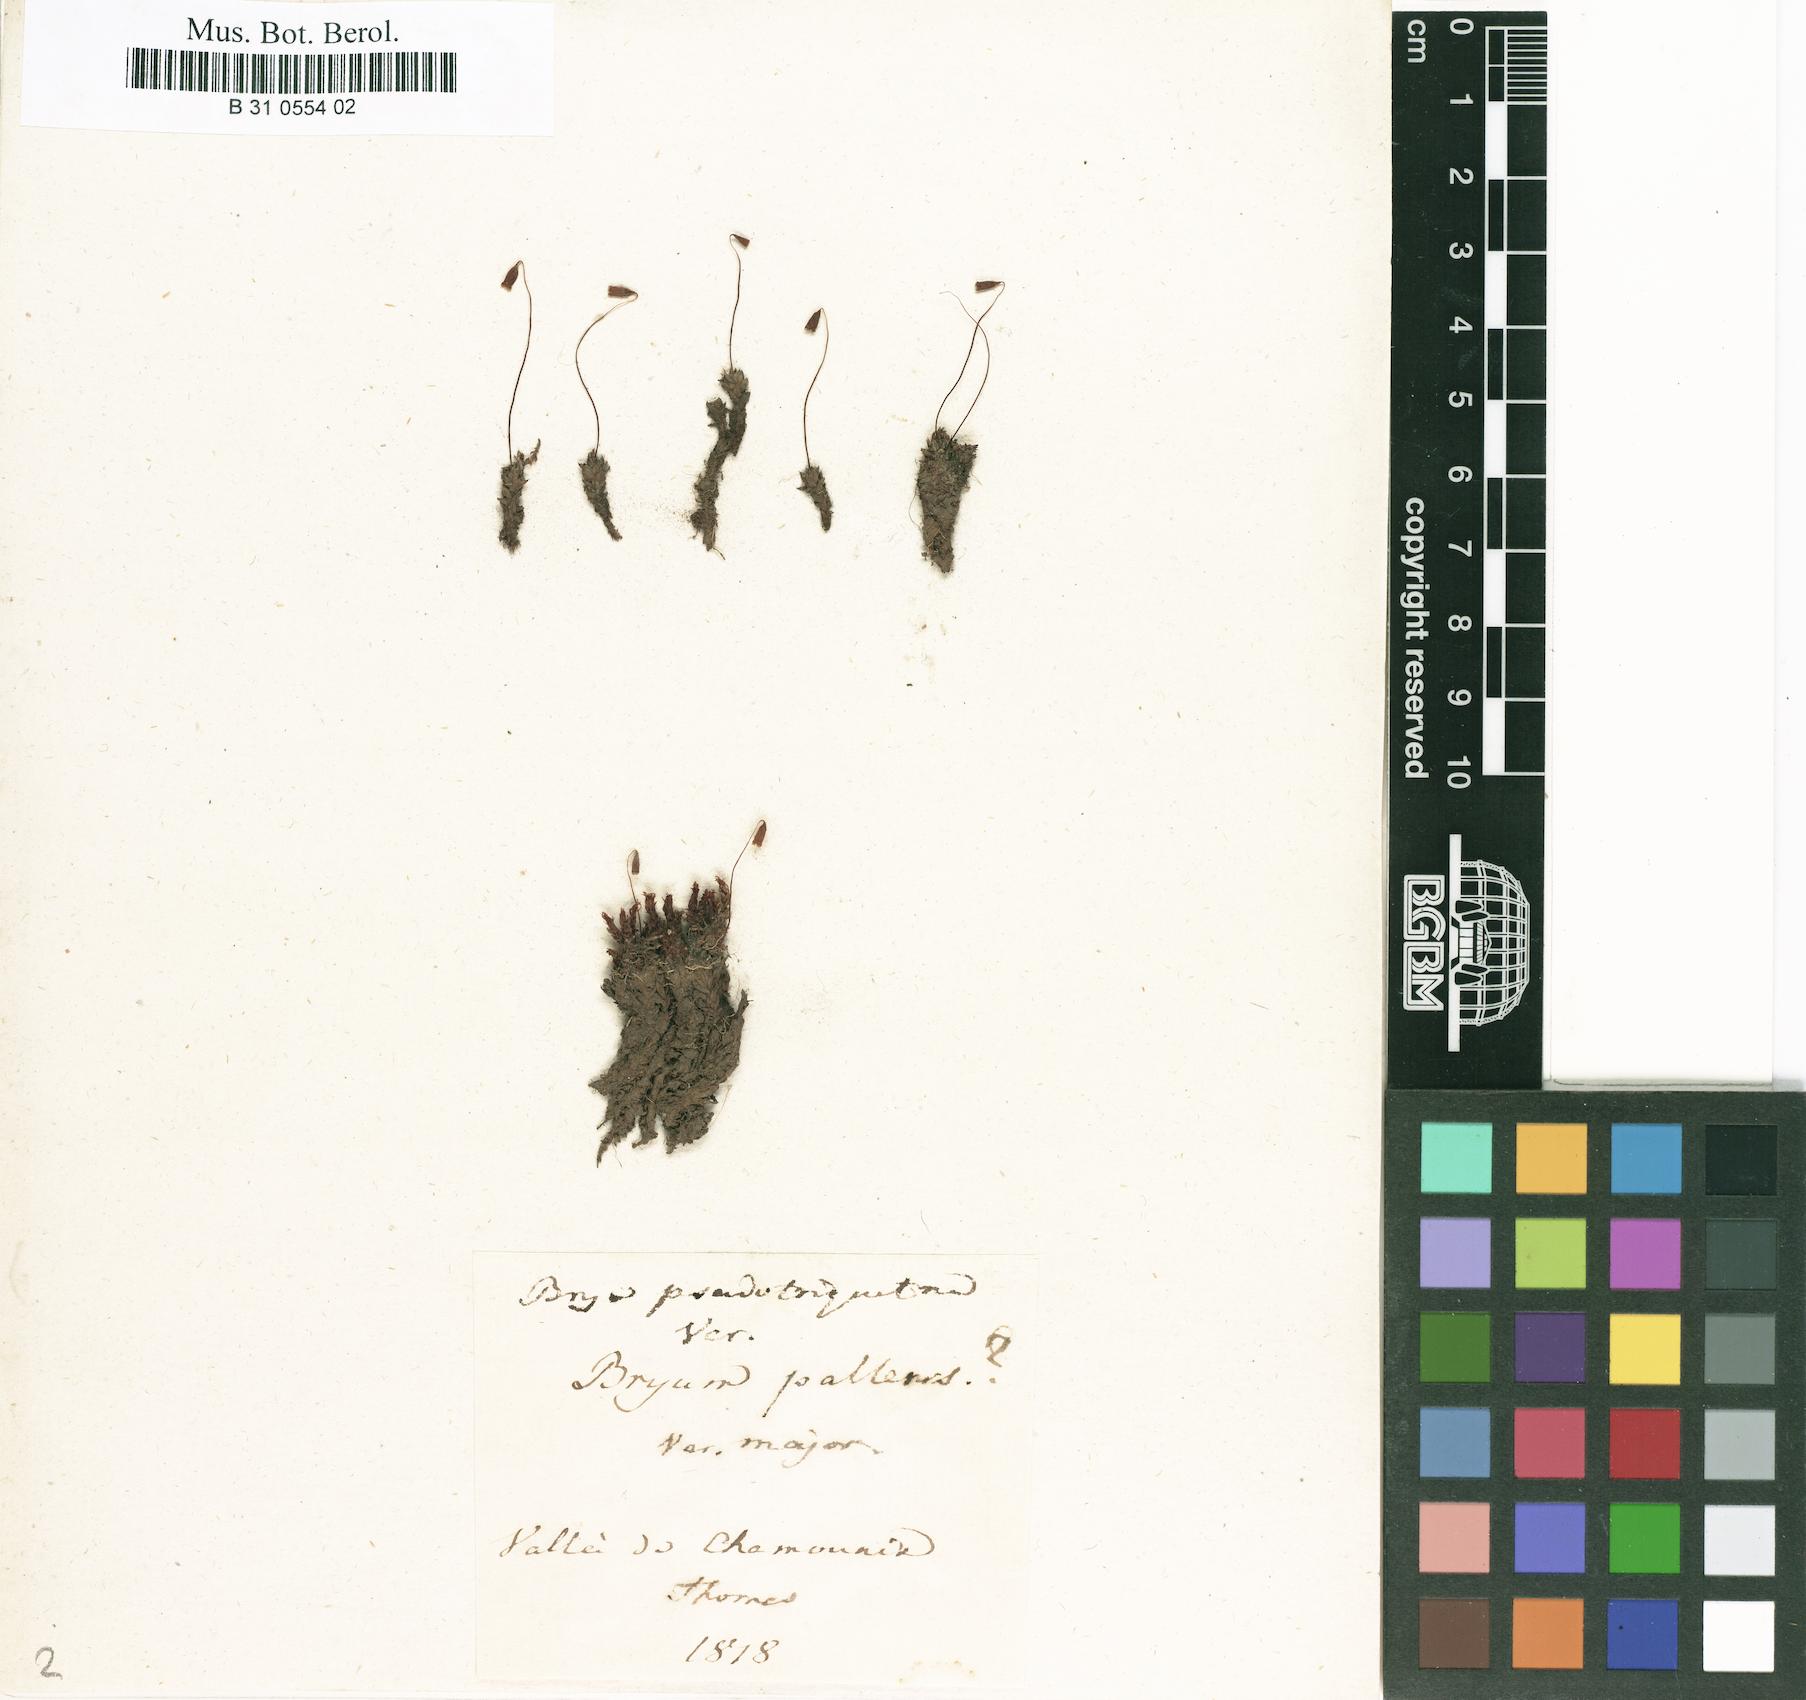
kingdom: Plantae
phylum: Bryophyta
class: Bryopsida
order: Bryales
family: Bryaceae
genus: Ptychostomum
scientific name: Ptychostomum pseudotriquetrum
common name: Long-leaved thread moss
